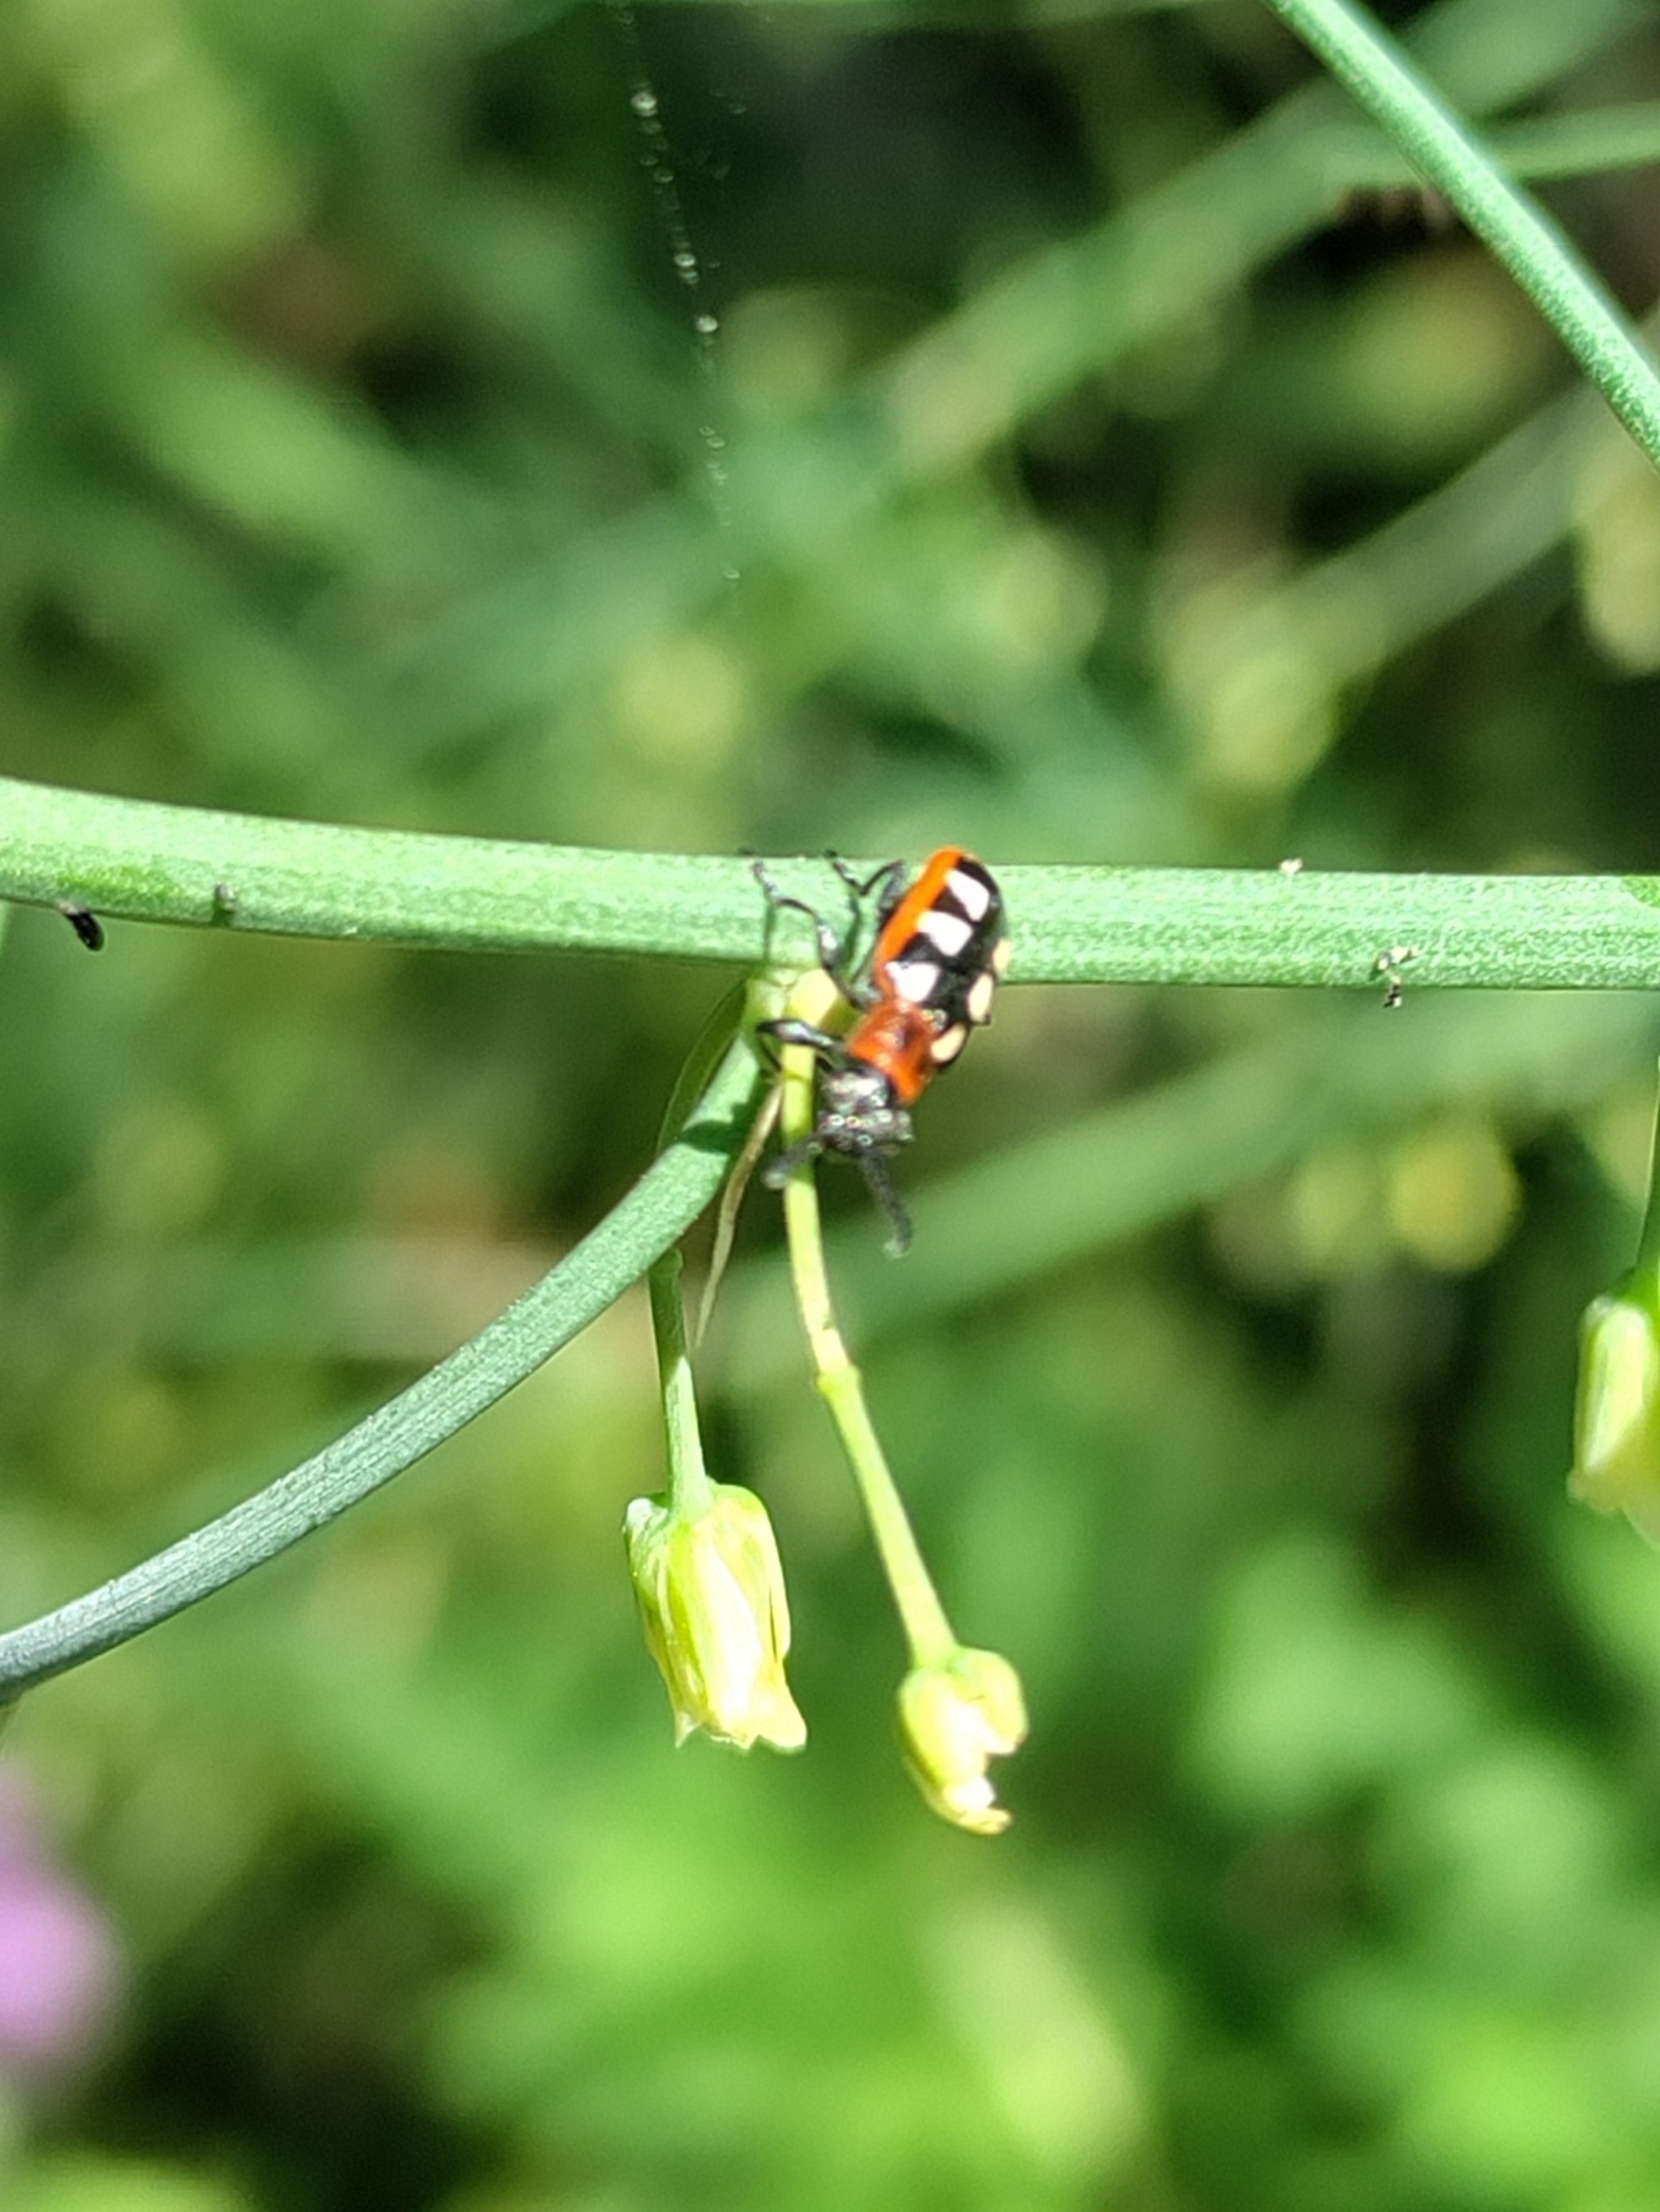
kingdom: Animalia
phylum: Arthropoda
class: Insecta
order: Coleoptera
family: Chrysomelidae
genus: Crioceris
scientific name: Crioceris asparagi
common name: Gulplettet aspargesbille
